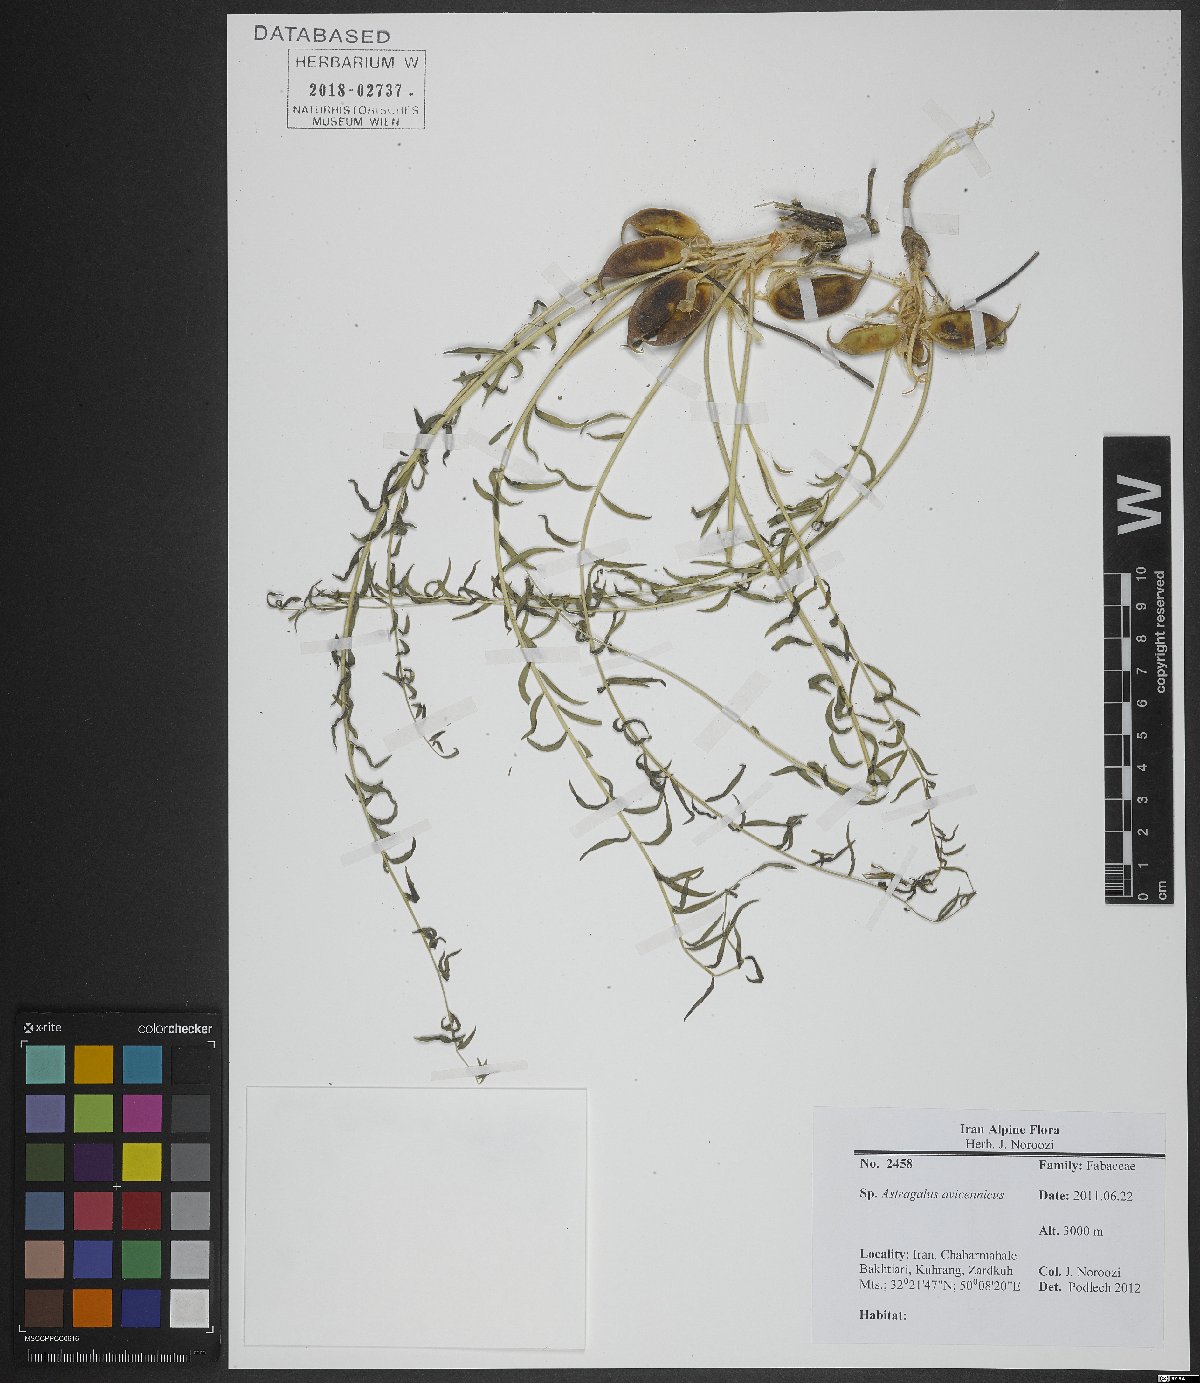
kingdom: Plantae
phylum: Tracheophyta
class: Magnoliopsida
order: Fabales
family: Fabaceae
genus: Astragalus
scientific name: Astragalus avicennicus
